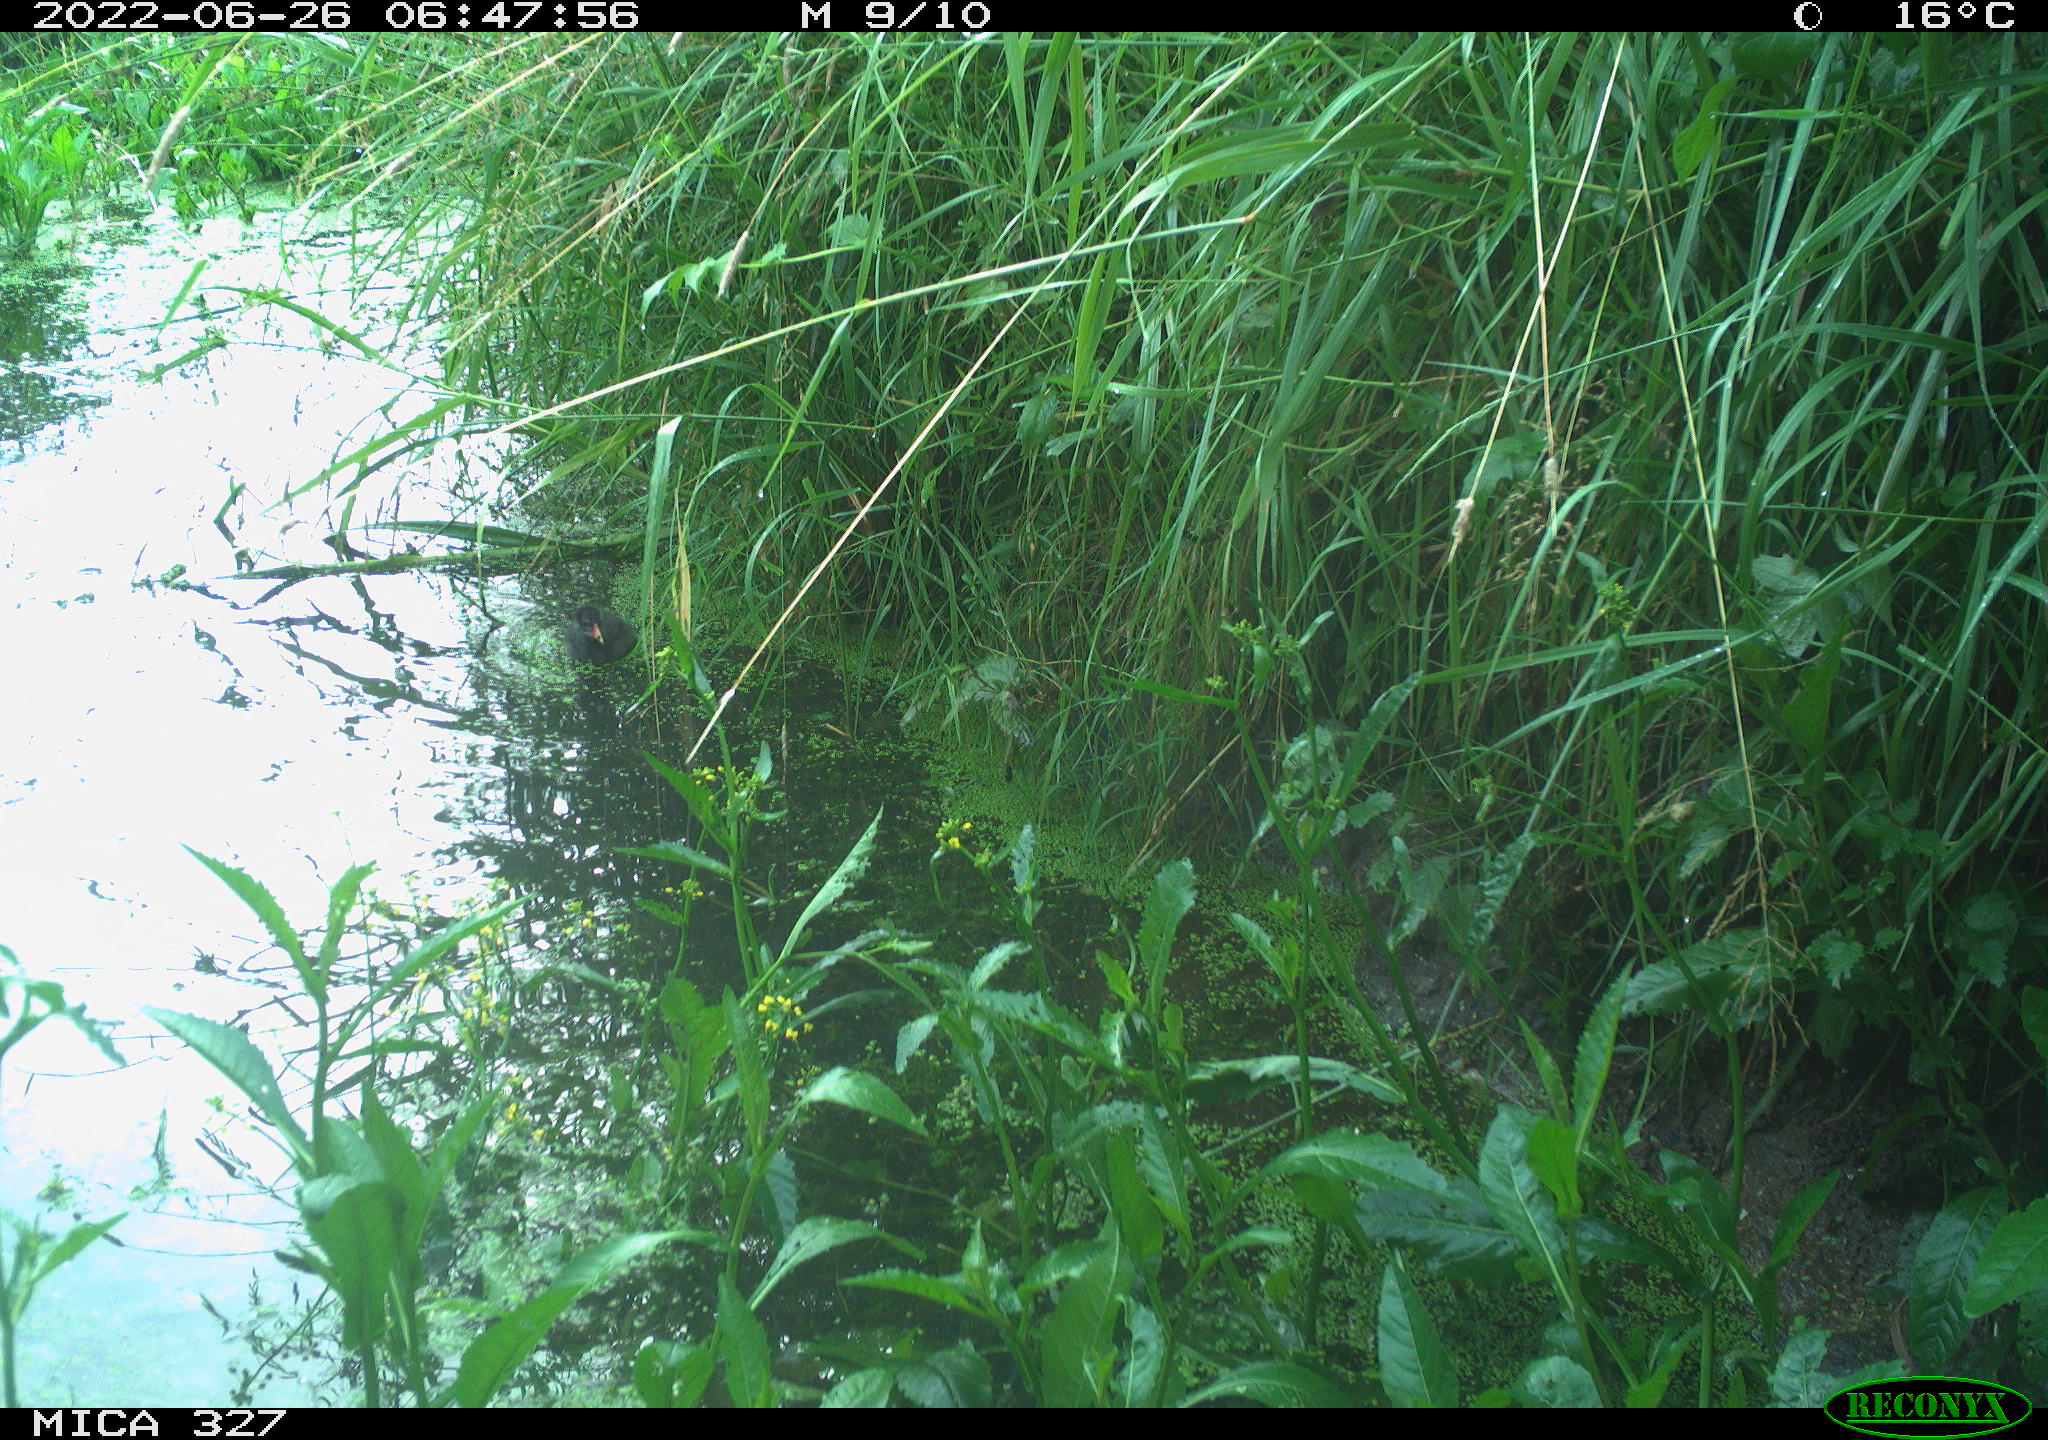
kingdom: Animalia
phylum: Chordata
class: Aves
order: Gruiformes
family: Rallidae
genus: Gallinula
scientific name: Gallinula chloropus
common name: Common moorhen
